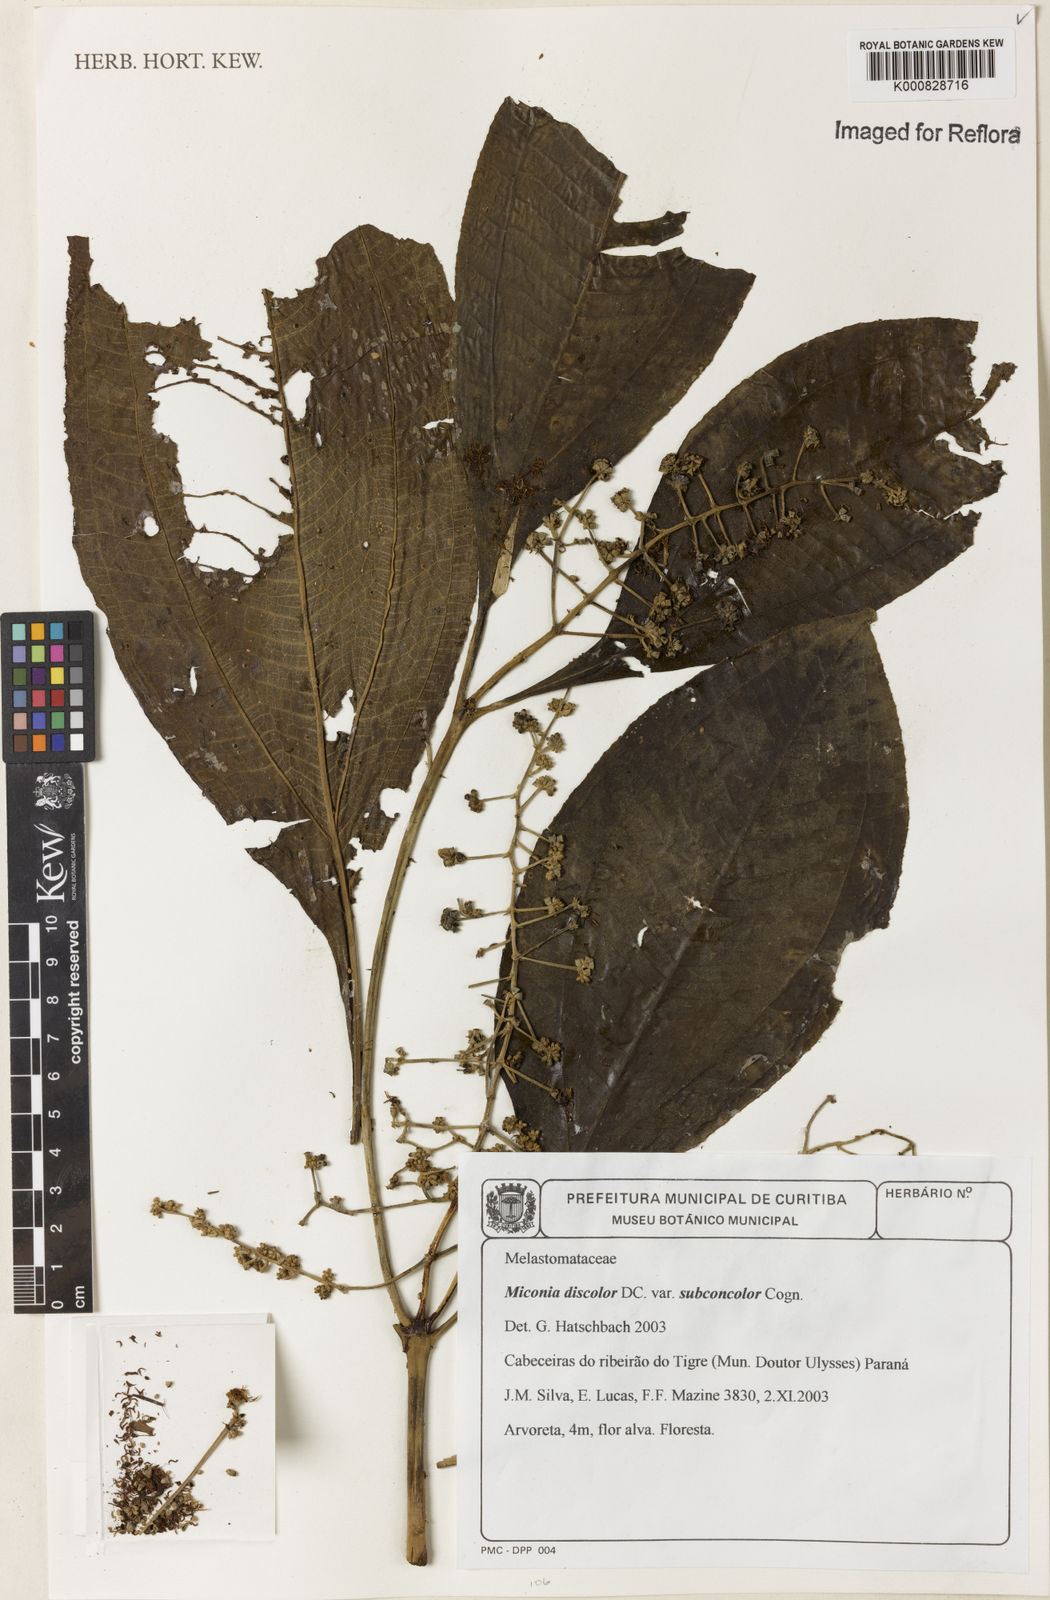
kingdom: Plantae
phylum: Tracheophyta
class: Magnoliopsida
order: Myrtales
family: Melastomataceae
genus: Miconia
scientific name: Miconia discolor
